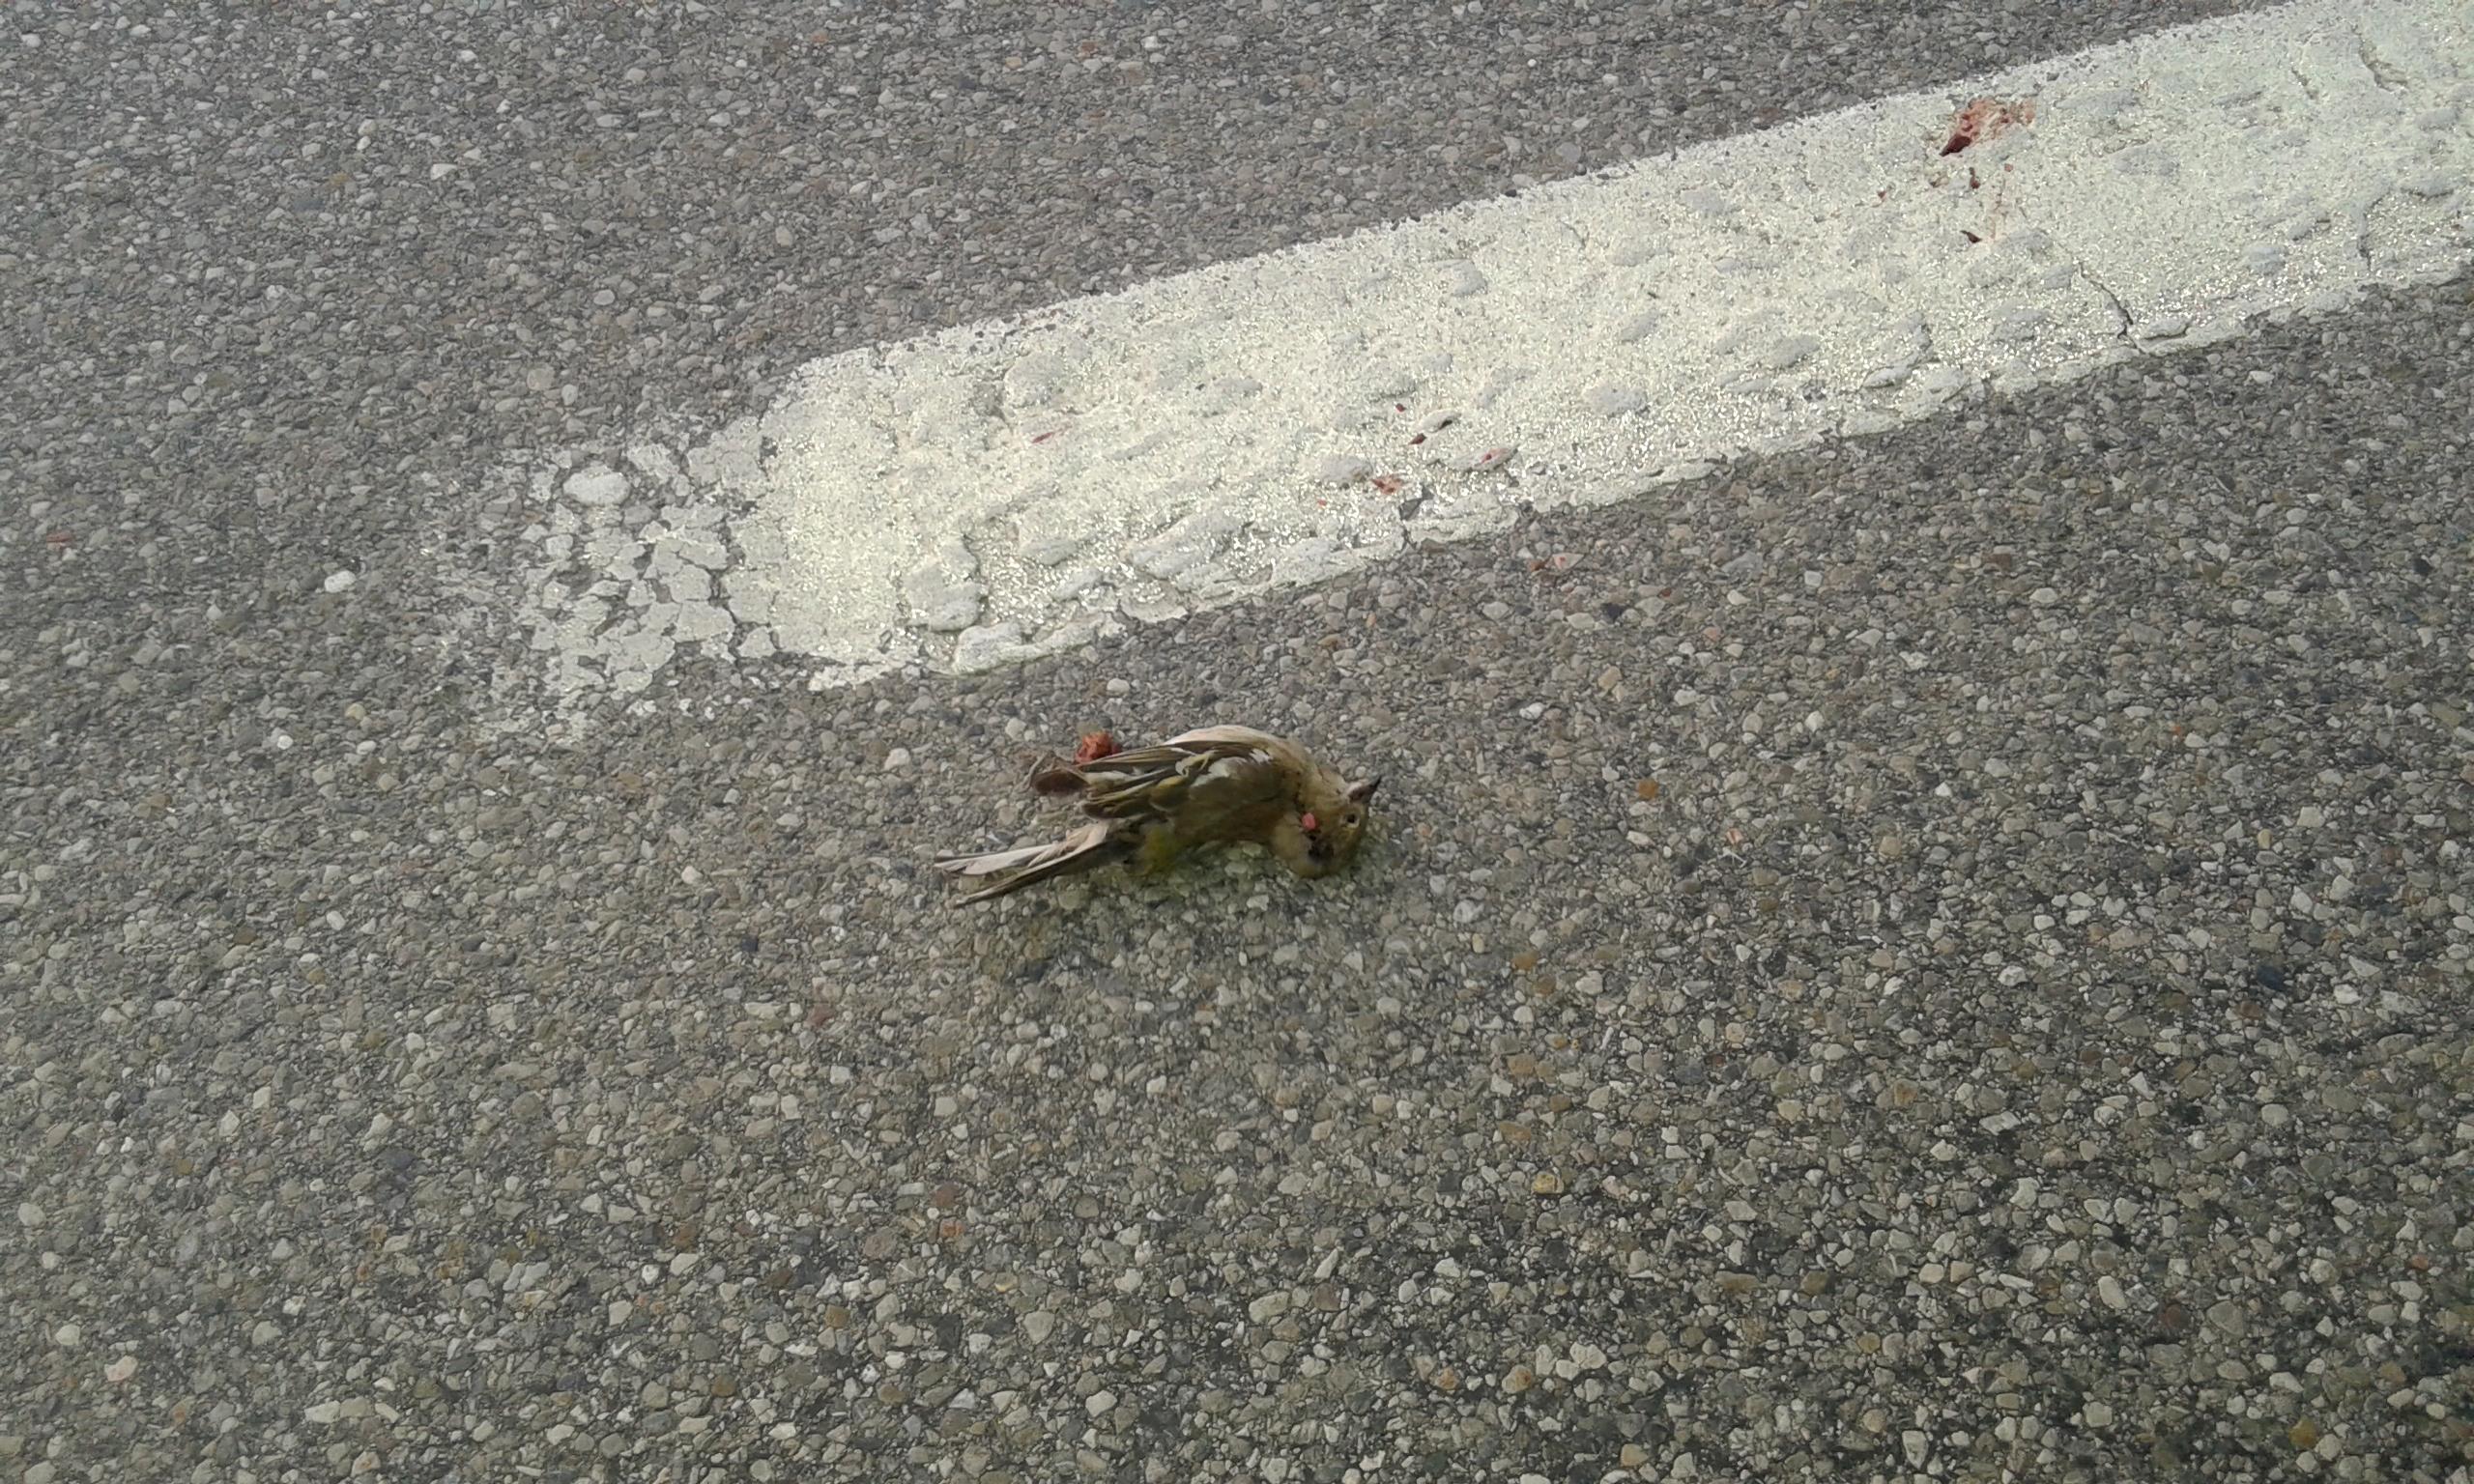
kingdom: Animalia
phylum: Chordata
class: Aves
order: Passeriformes
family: Fringillidae
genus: Fringilla
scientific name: Fringilla coelebs
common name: Common chaffinch
